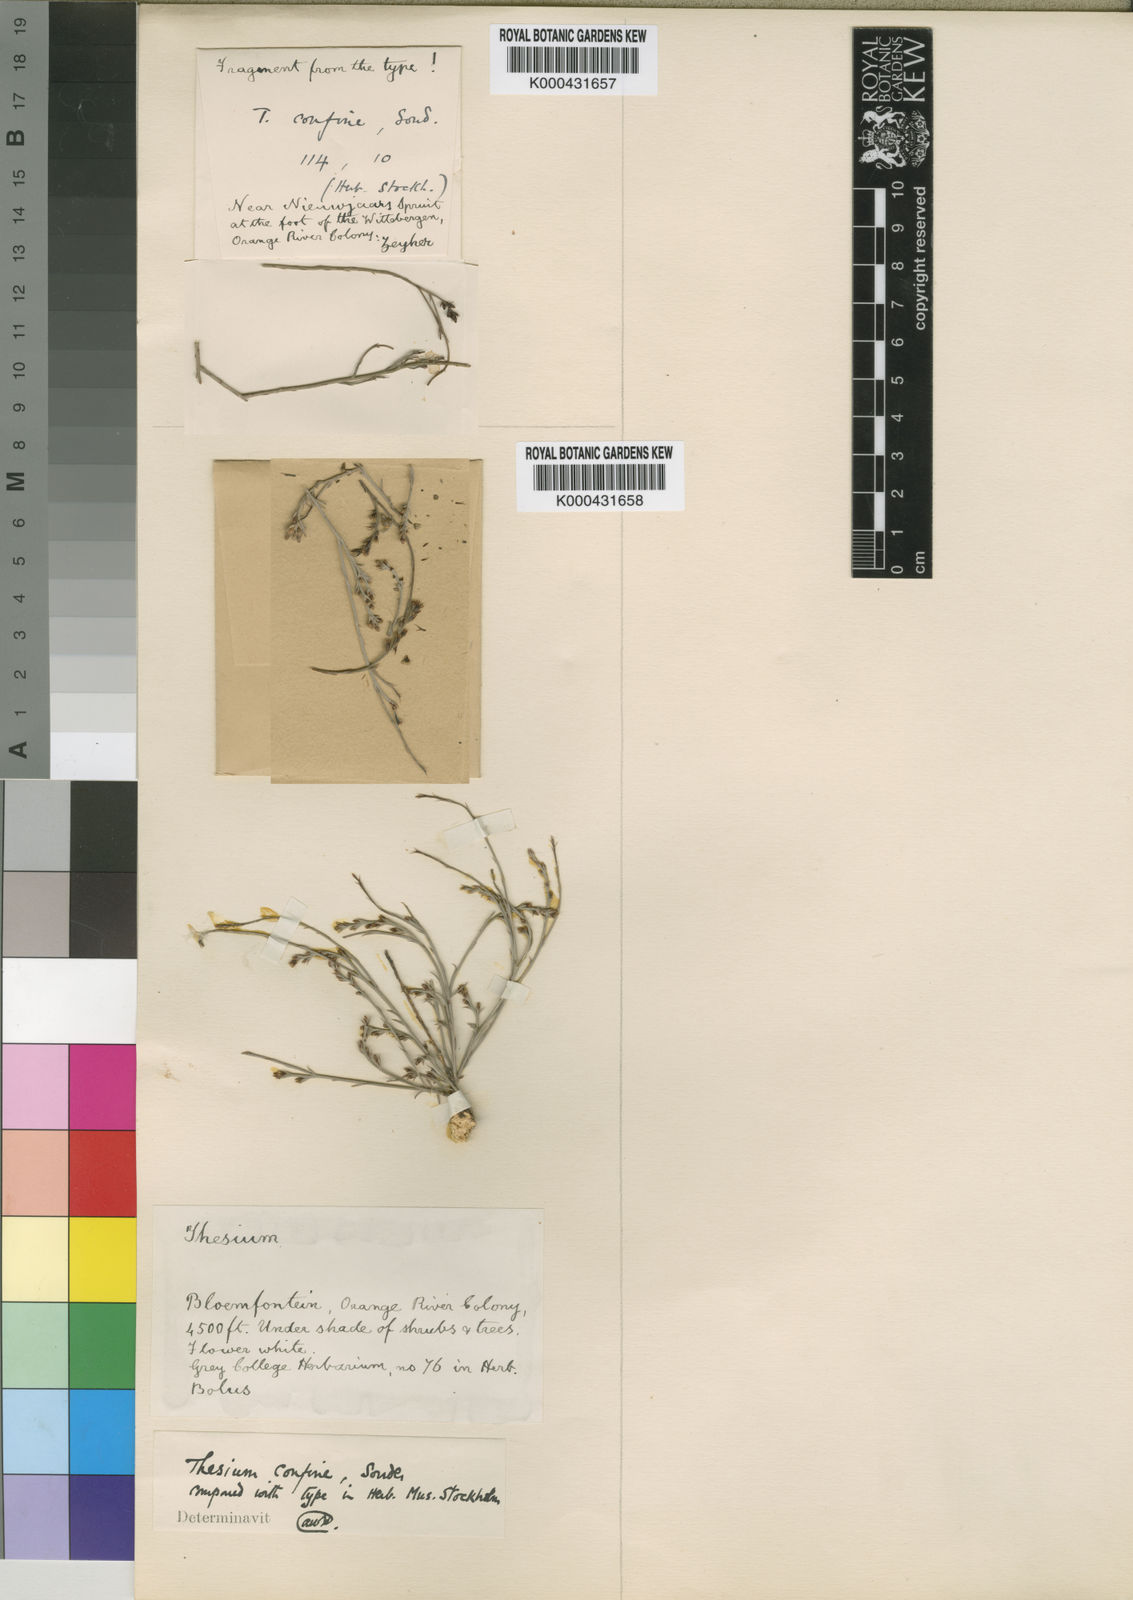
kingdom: Plantae
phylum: Tracheophyta
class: Magnoliopsida
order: Santalales
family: Thesiaceae
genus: Thesium
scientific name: Thesium confine
